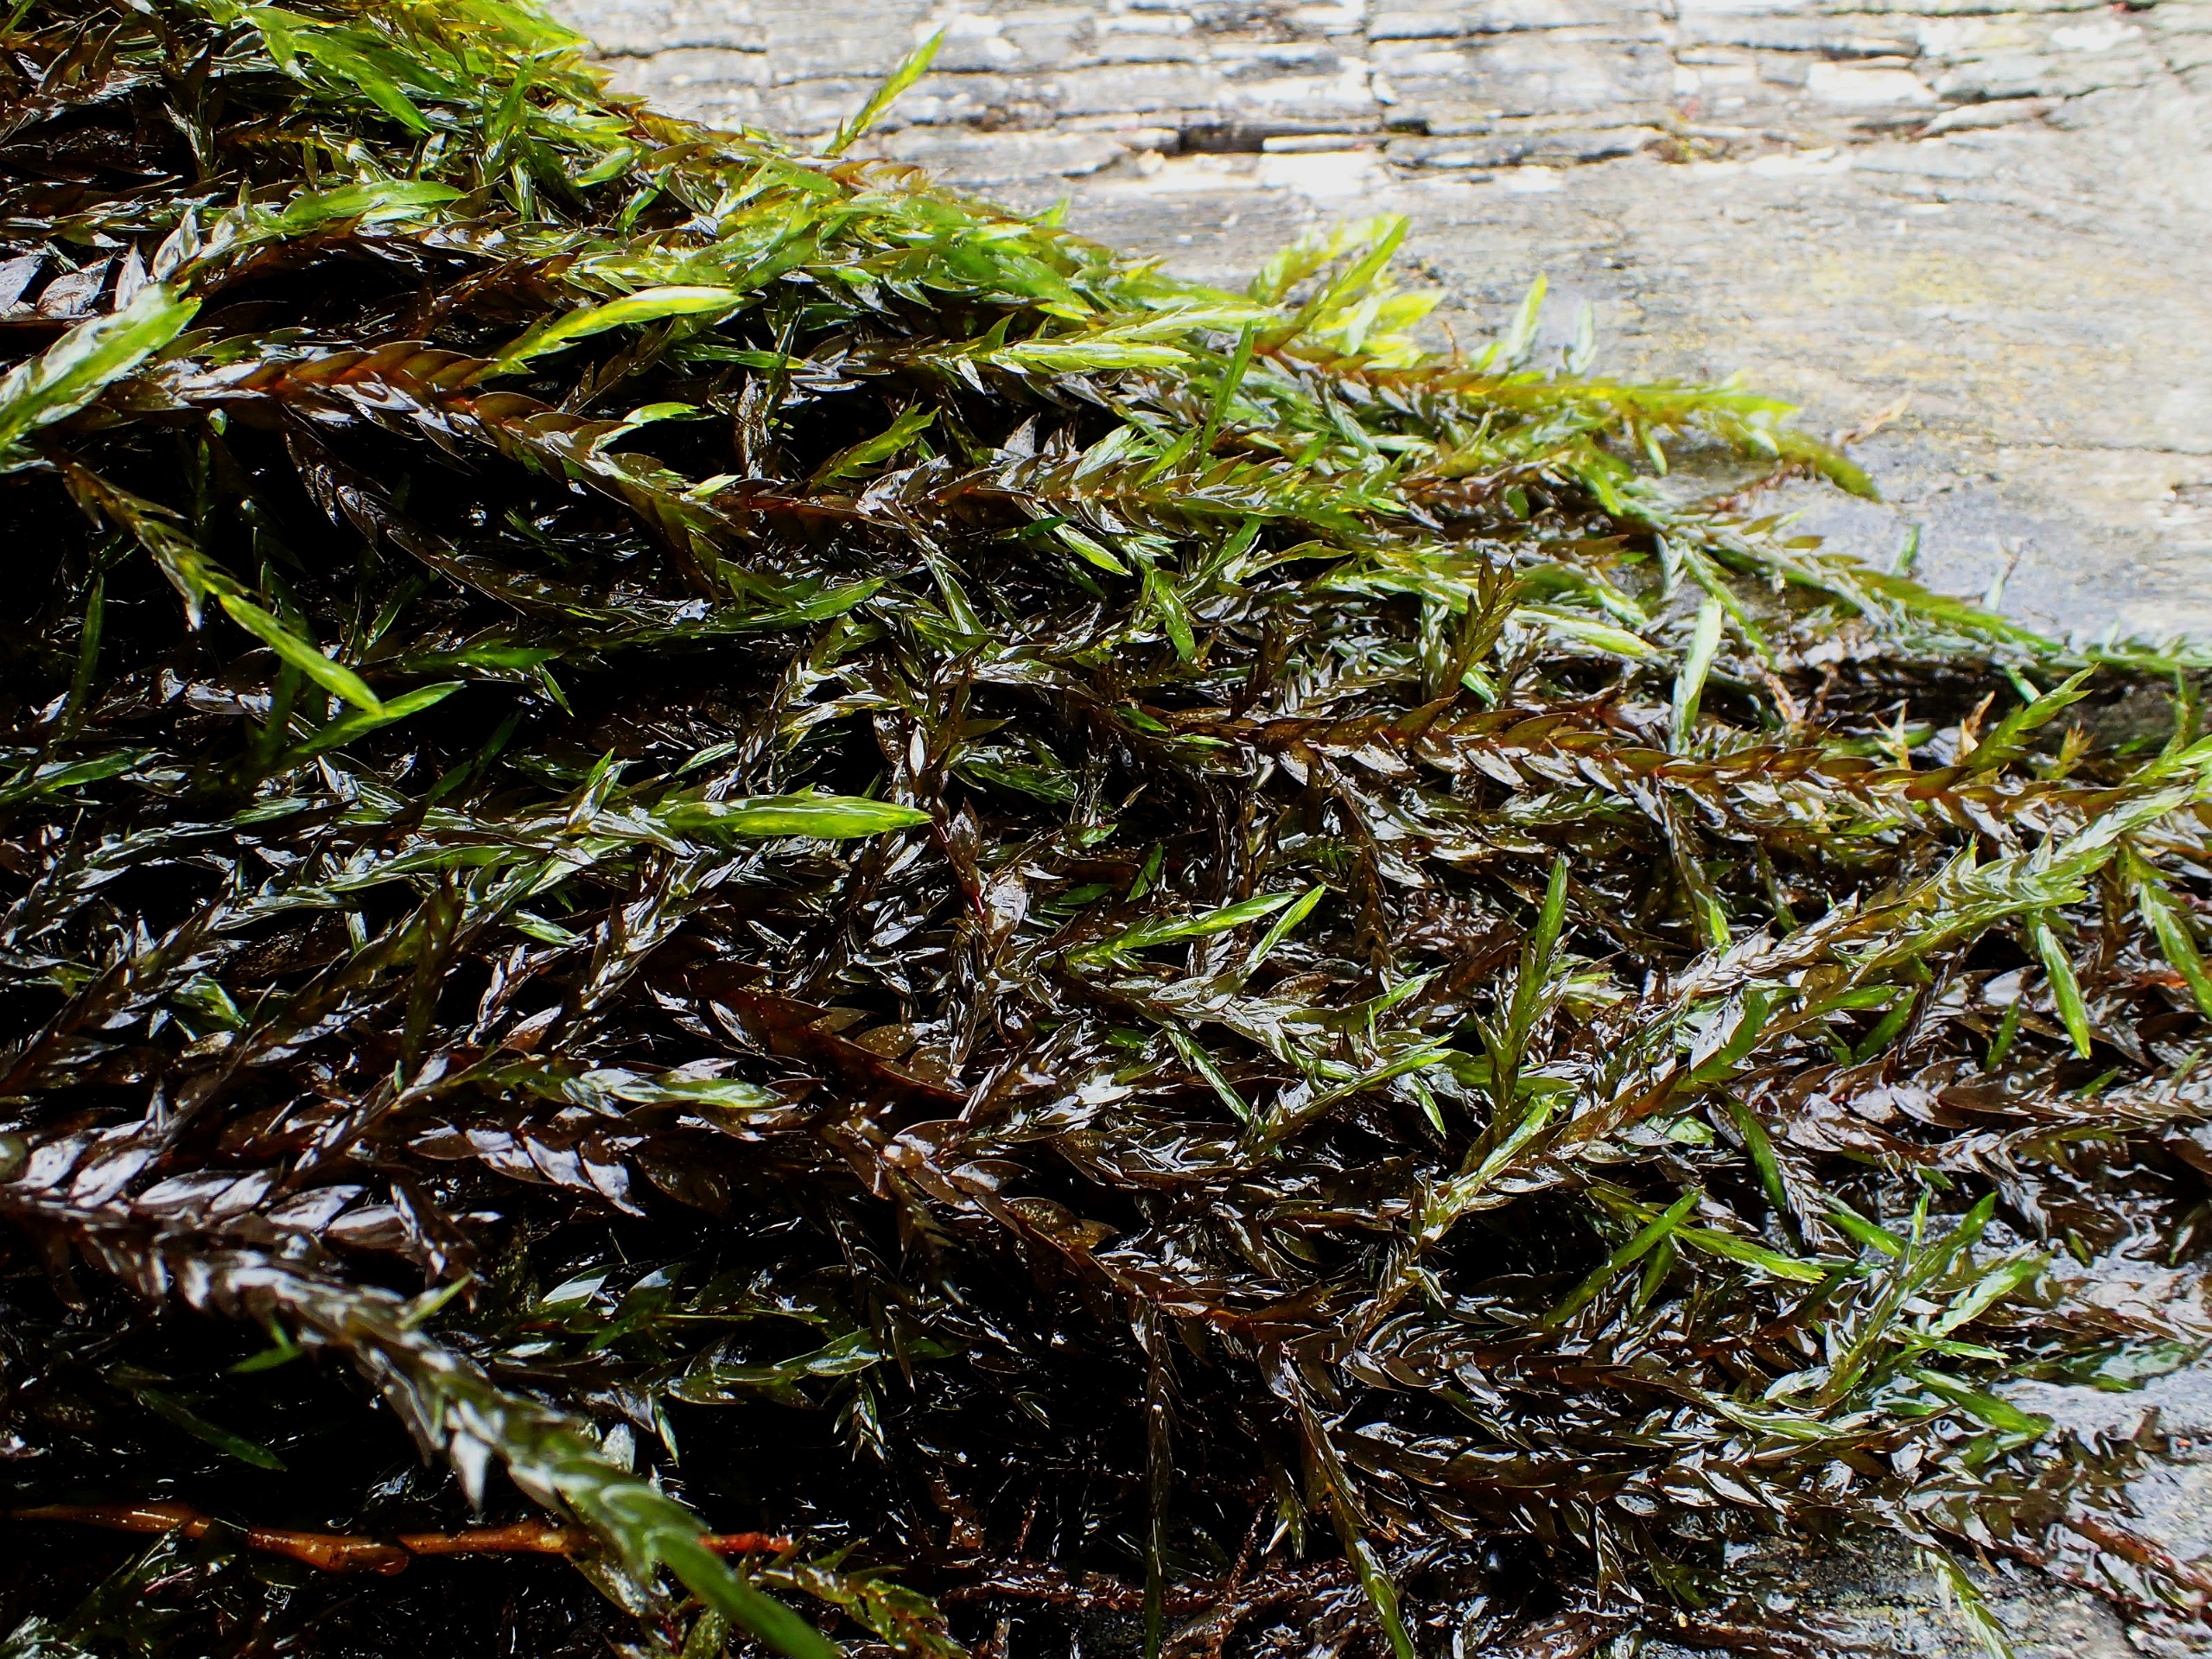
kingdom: Plantae
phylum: Bryophyta
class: Bryopsida
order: Hypnales
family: Fontinalaceae
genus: Fontinalis
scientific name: Fontinalis antipyretica
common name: Stor kildemos
